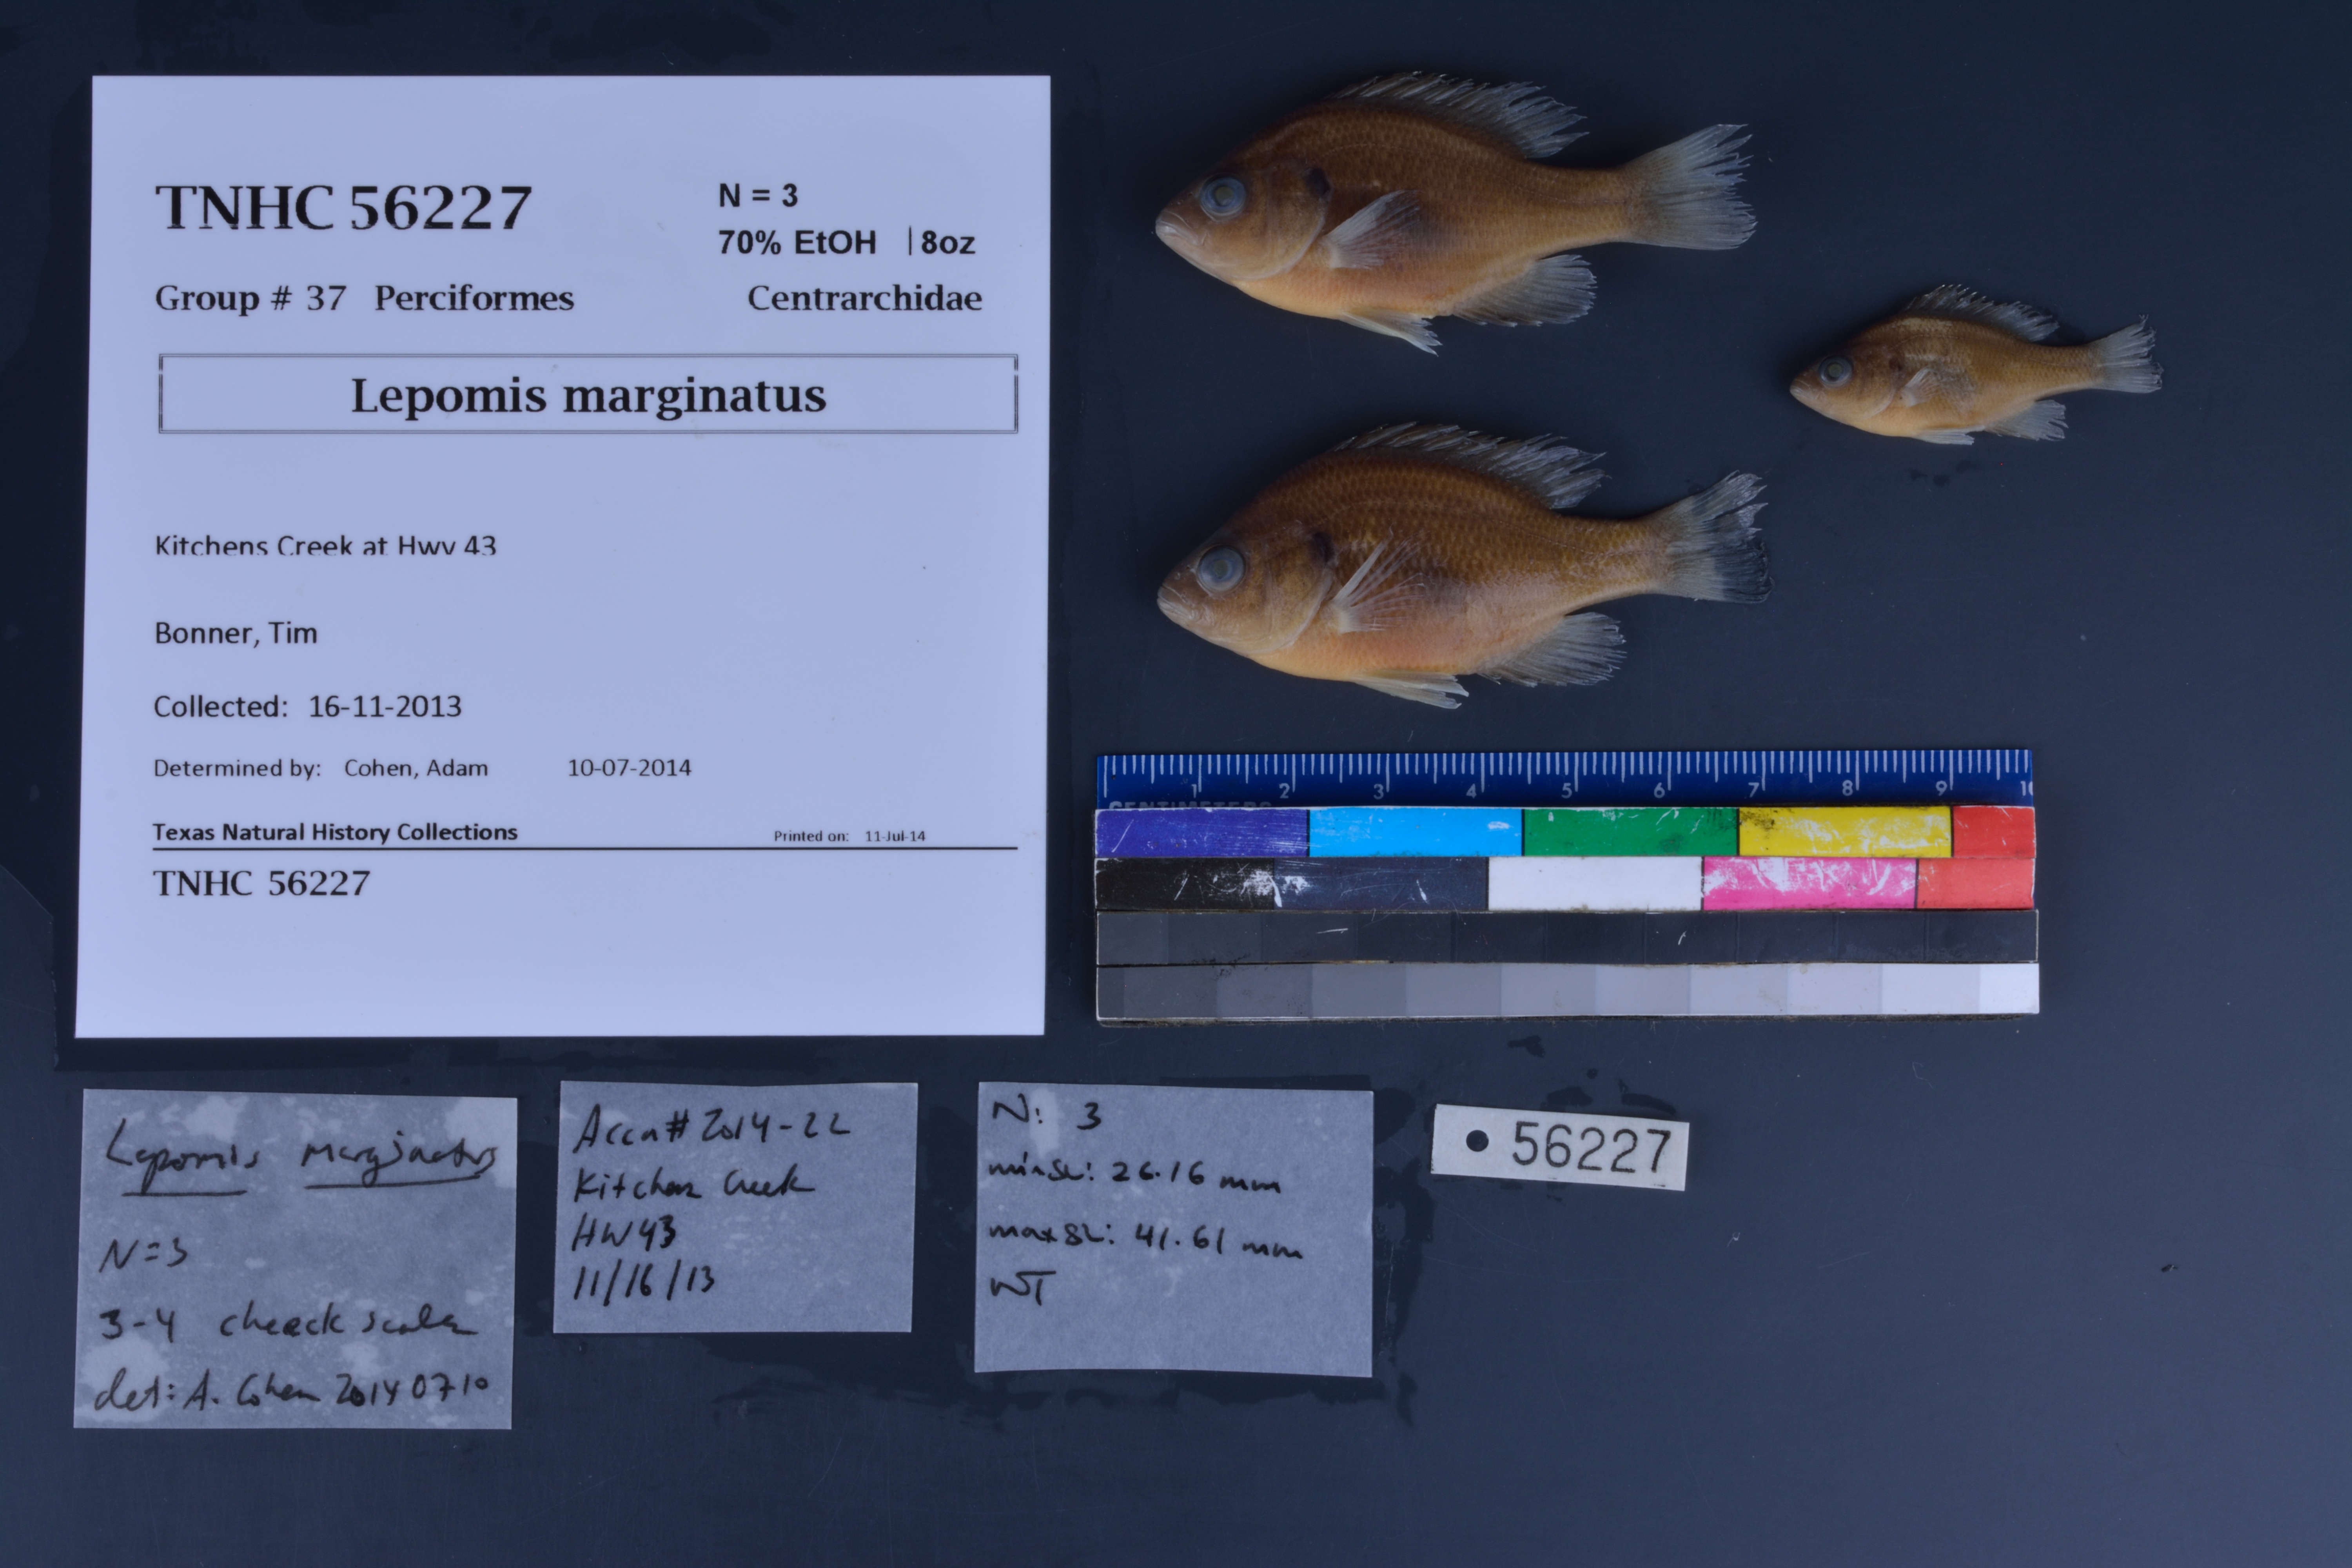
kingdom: Animalia
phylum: Chordata
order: Perciformes
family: Centrarchidae
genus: Lepomis
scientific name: Lepomis marginatus
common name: Dollar sunfish
